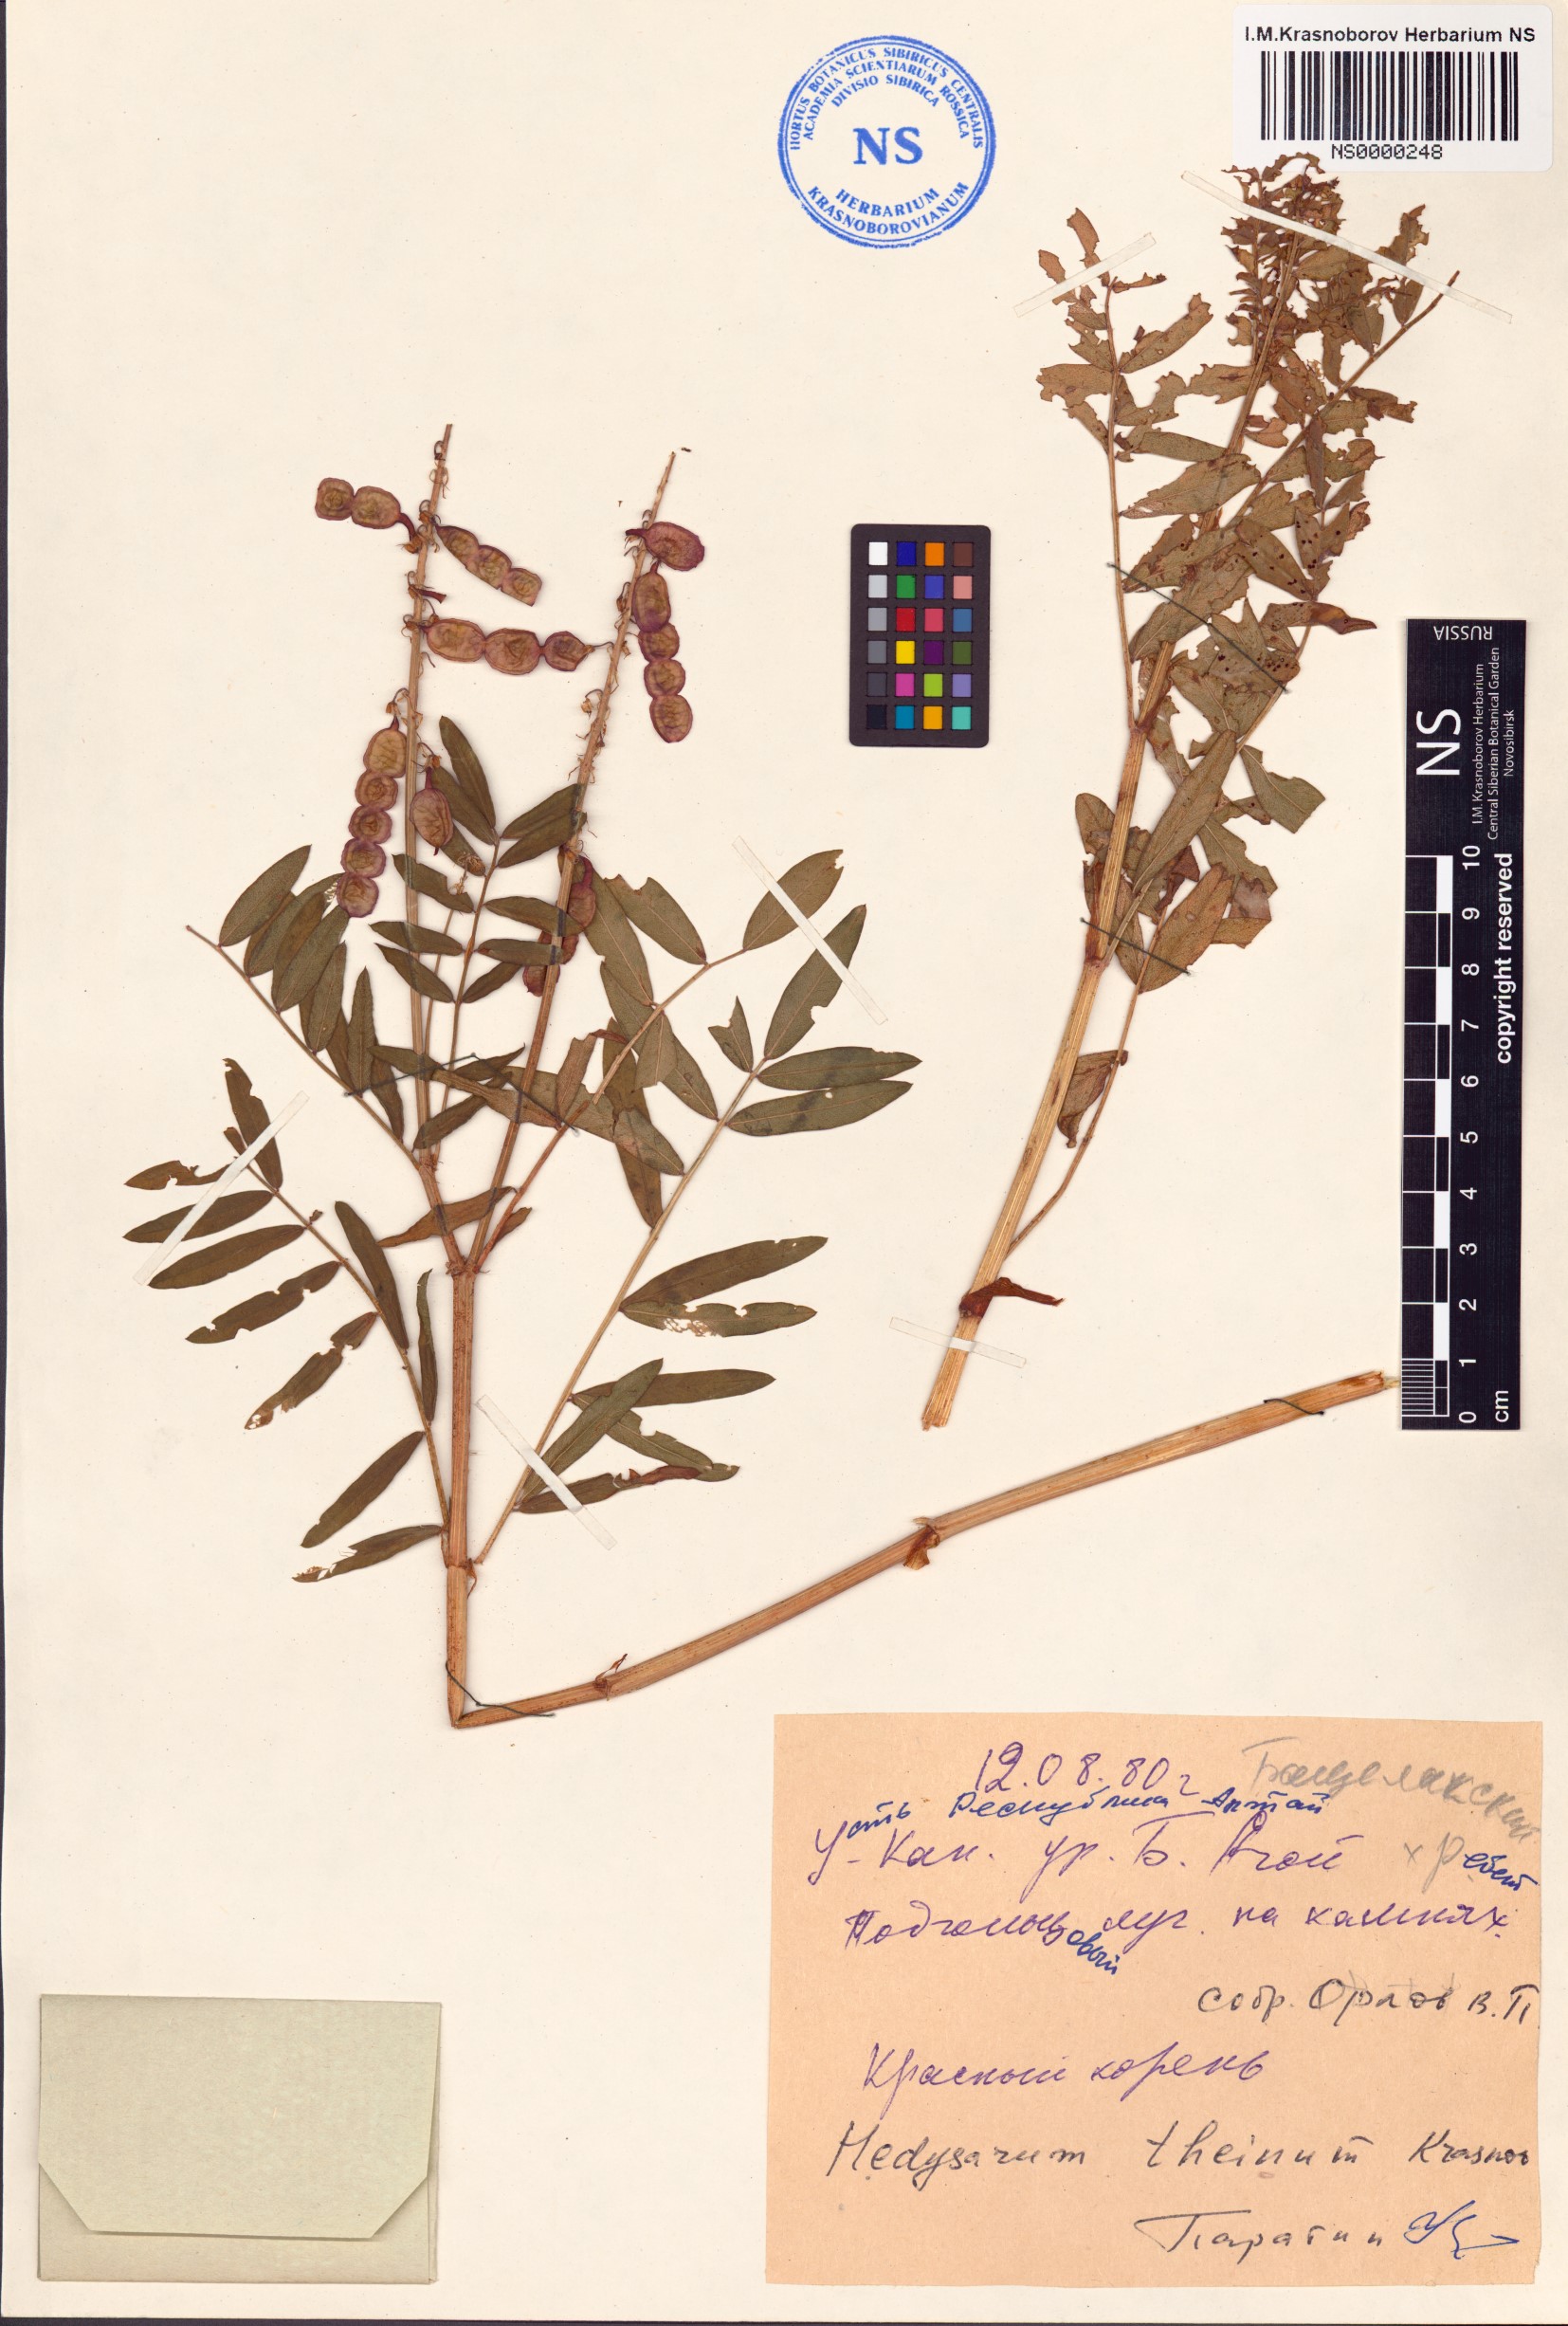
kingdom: Plantae
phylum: Tracheophyta
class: Magnoliopsida
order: Fabales
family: Fabaceae
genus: Hedysarum
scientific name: Hedysarum theinum
